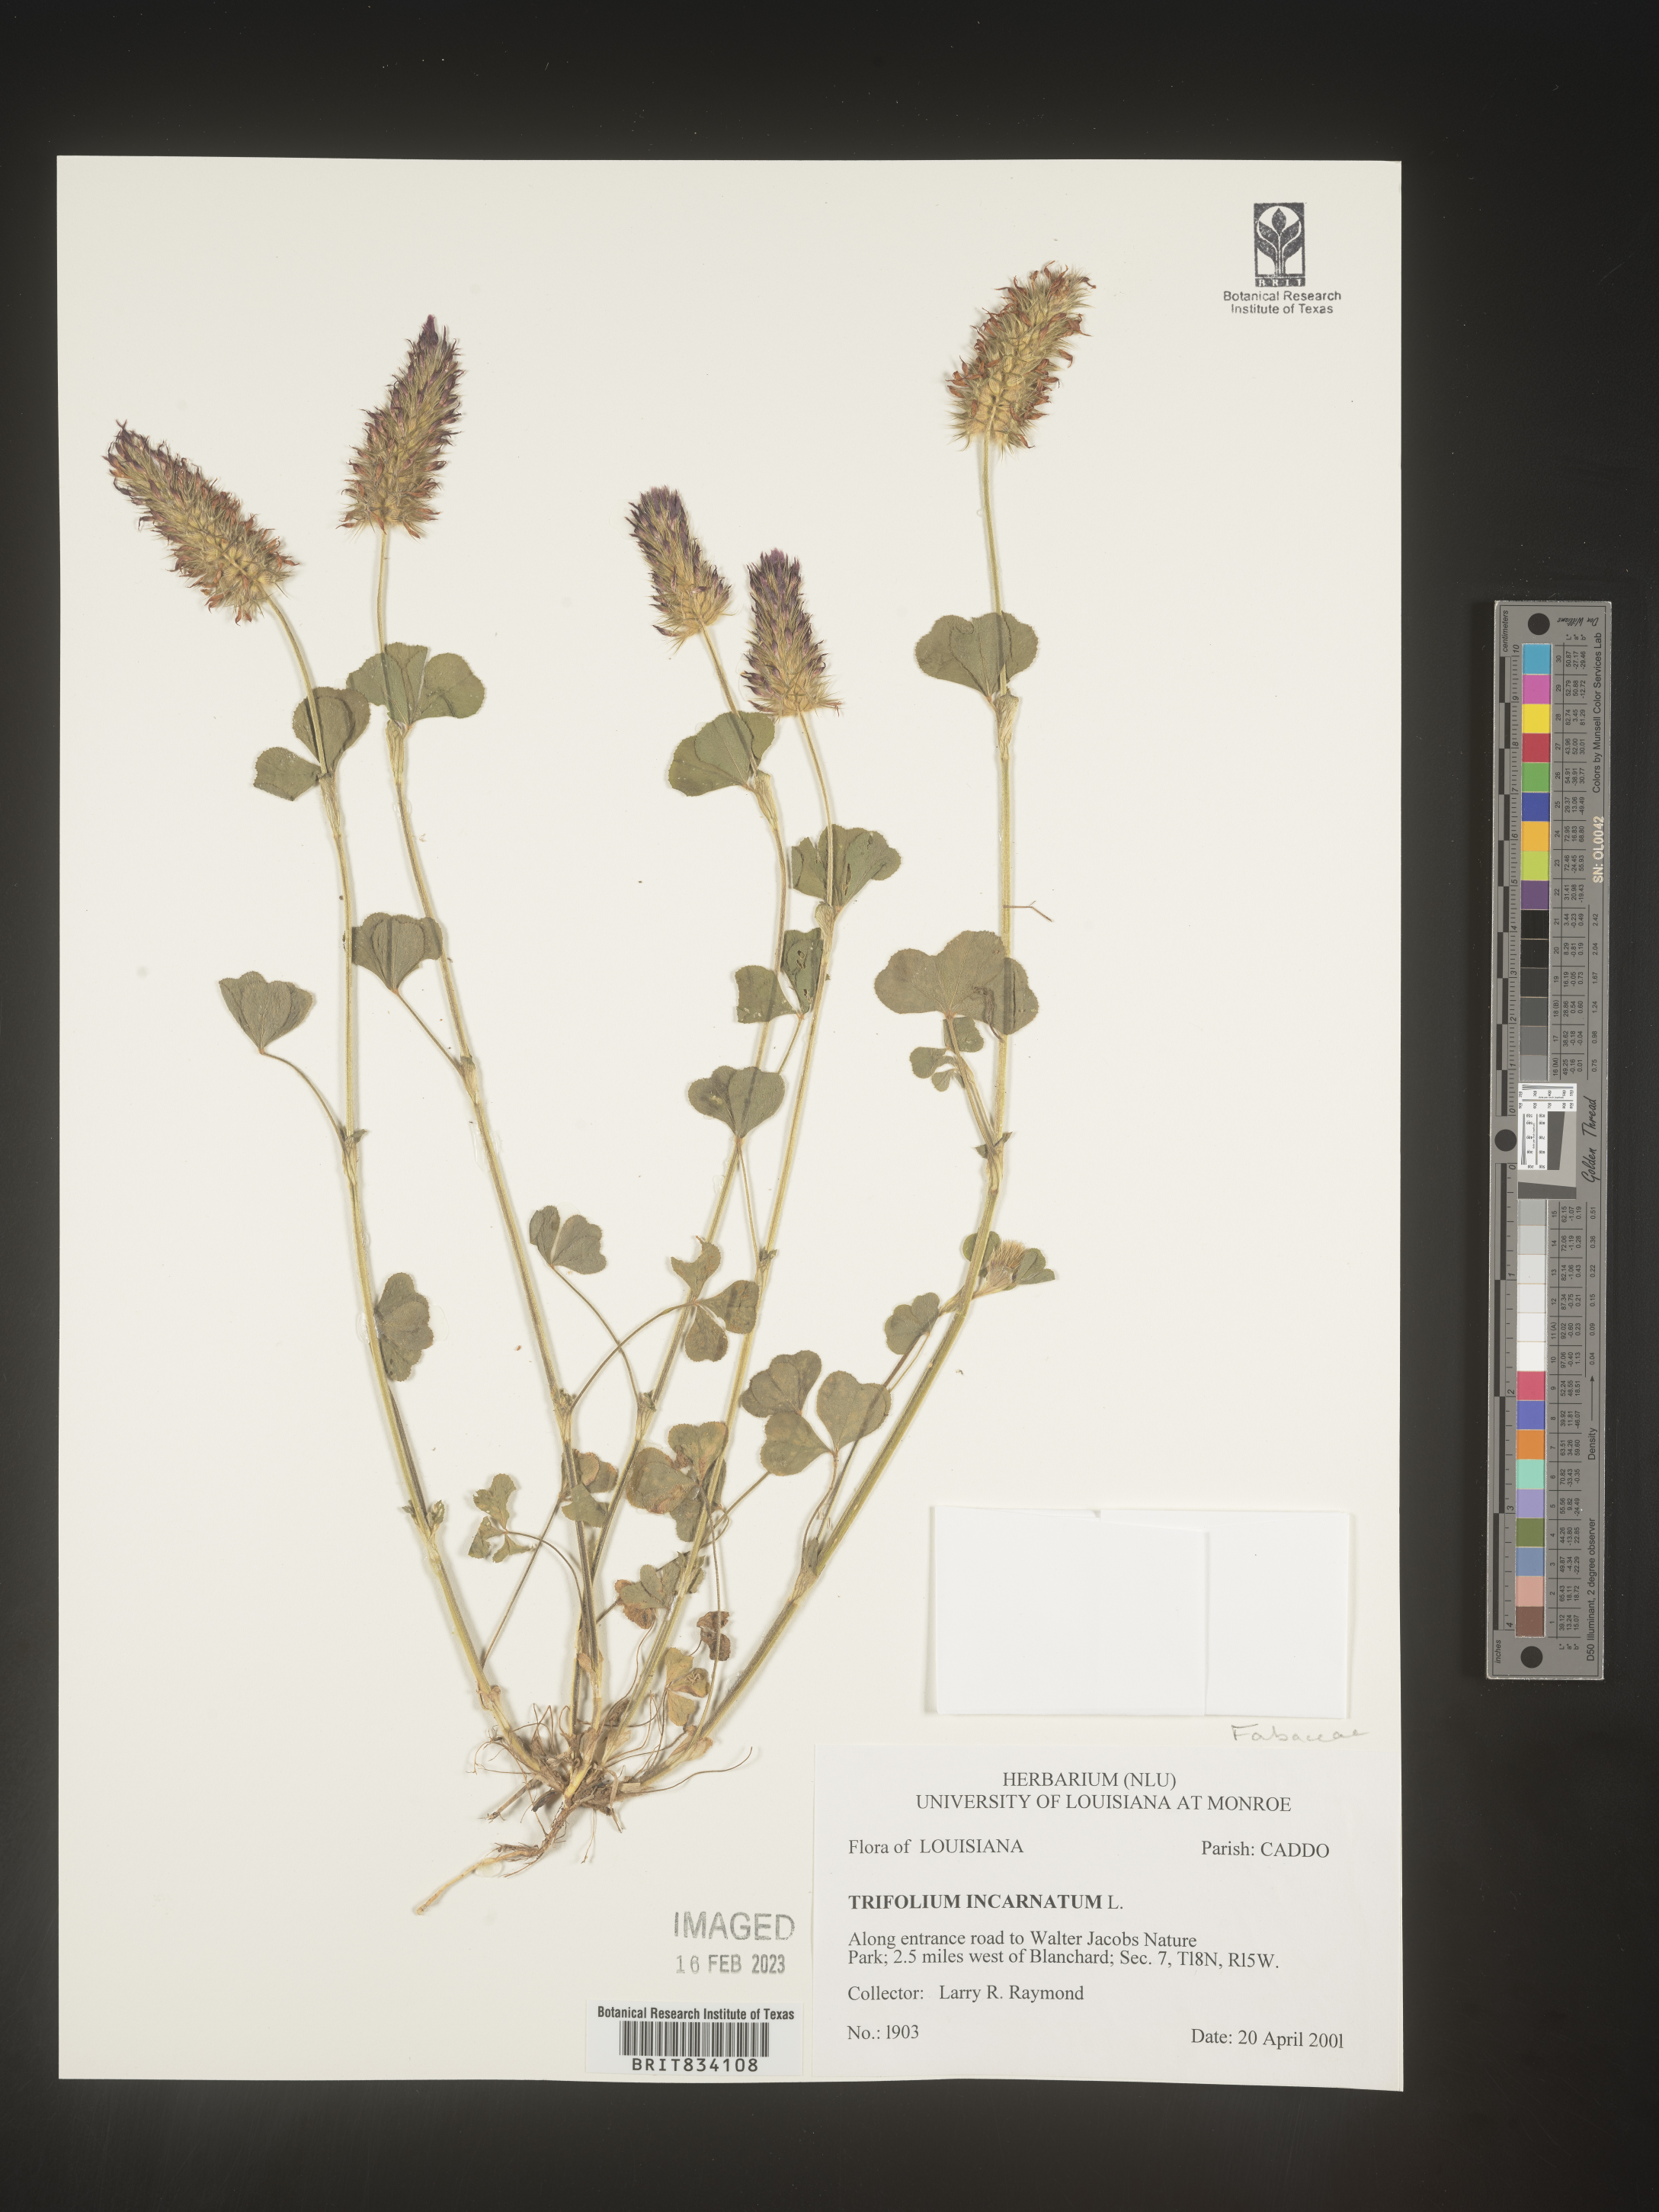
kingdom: Plantae
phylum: Tracheophyta
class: Magnoliopsida
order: Fabales
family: Fabaceae
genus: Trifolium
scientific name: Trifolium incarnatum
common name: Crimson clover
